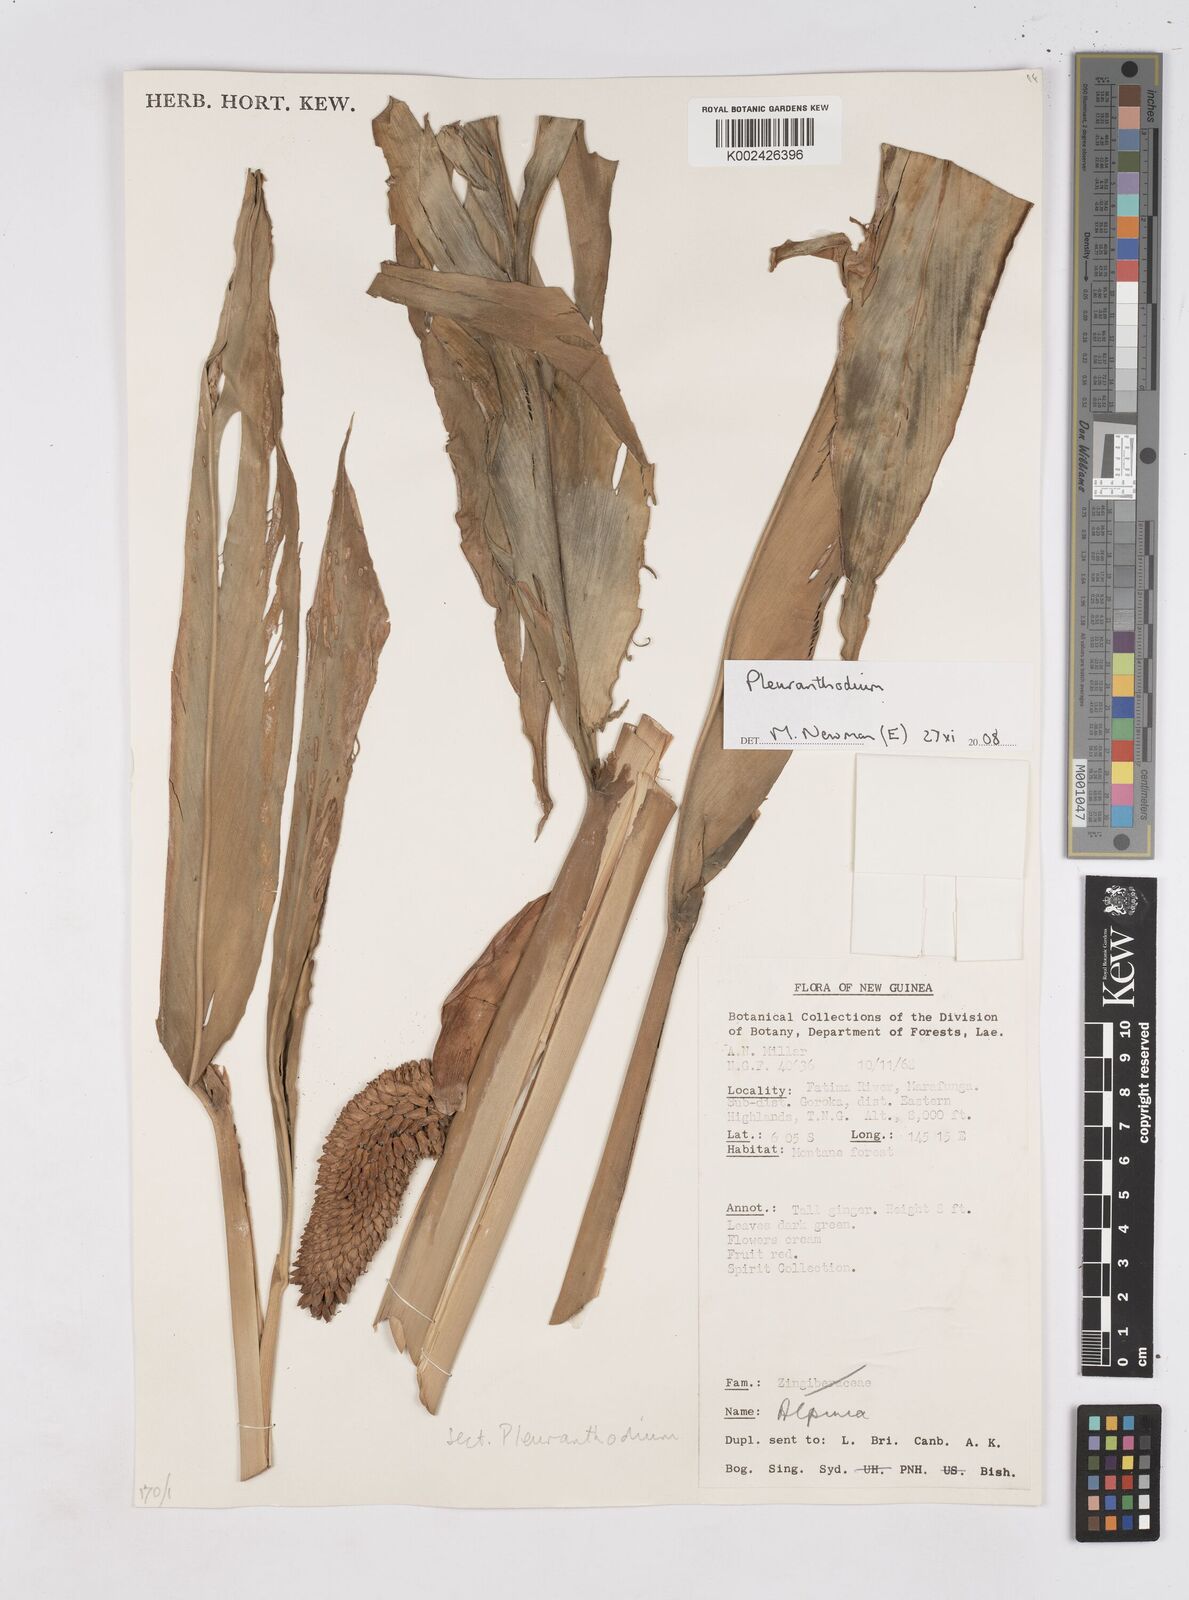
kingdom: Plantae
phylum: Tracheophyta
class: Liliopsida
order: Zingiberales
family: Zingiberaceae
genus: Pleuranthodium
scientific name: Pleuranthodium
